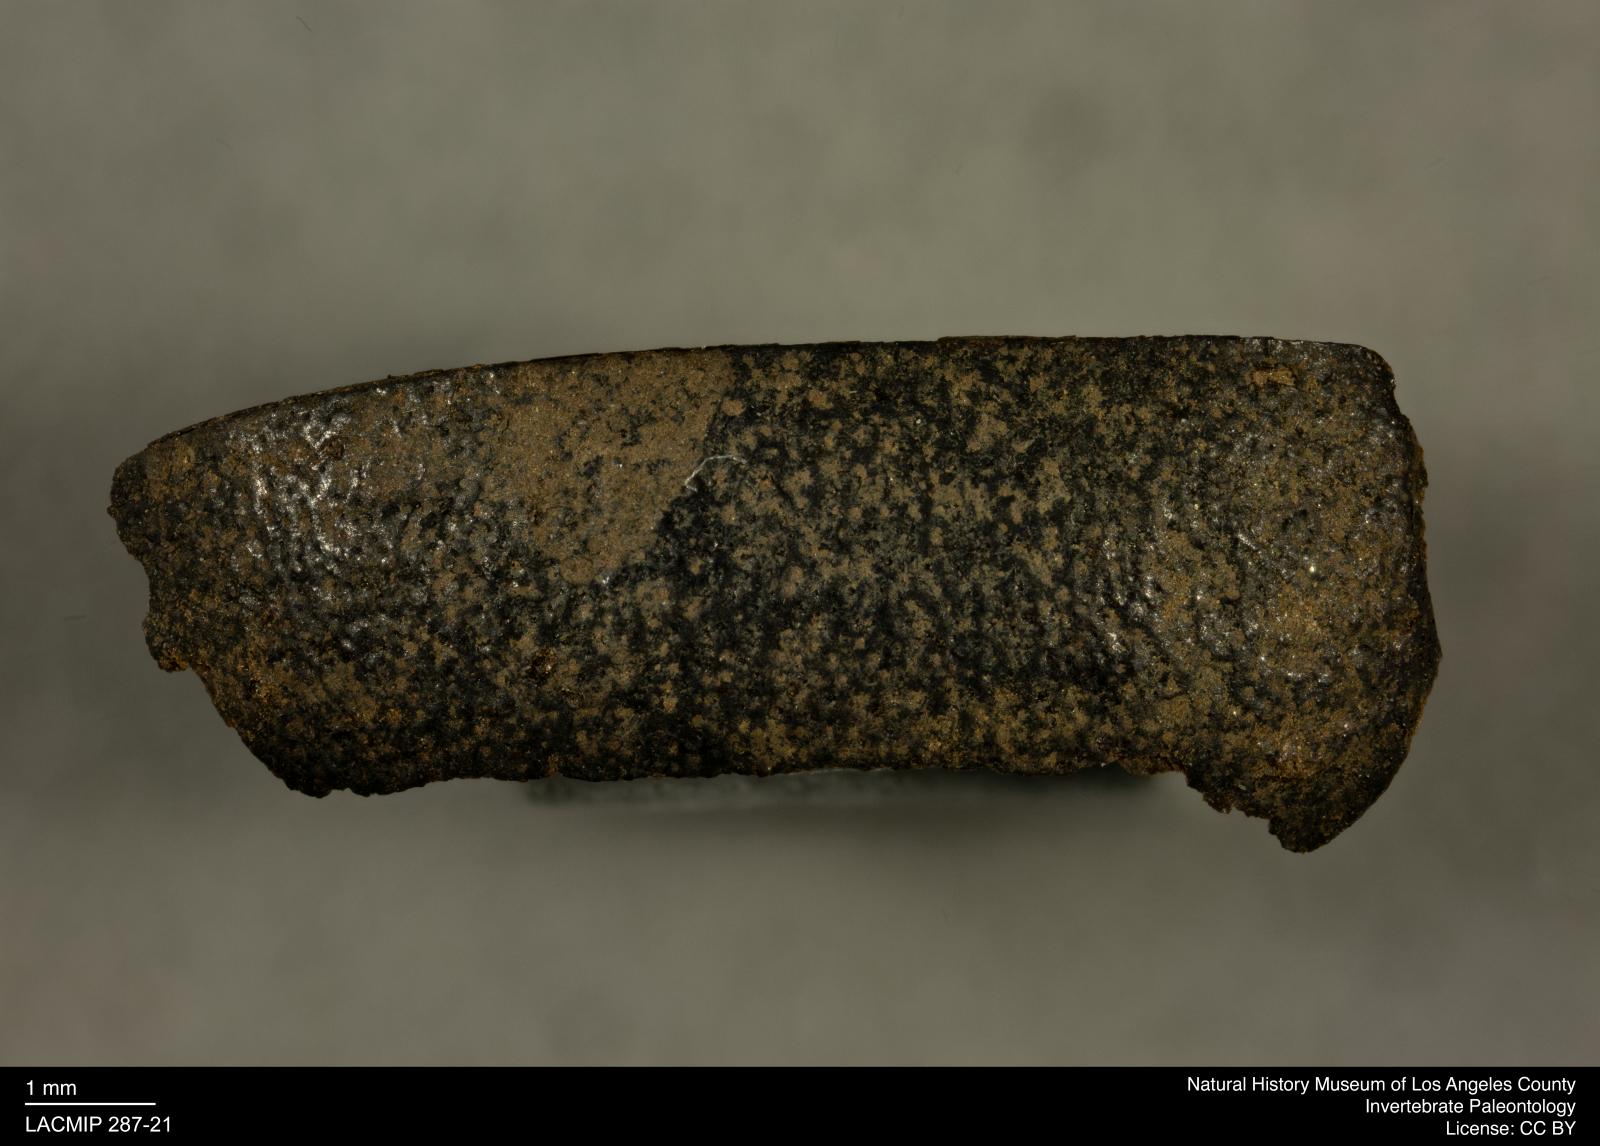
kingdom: Animalia
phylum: Arthropoda
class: Insecta
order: Coleoptera
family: Tenebrionidae
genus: Coniontis
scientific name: Coniontis abdominalis
